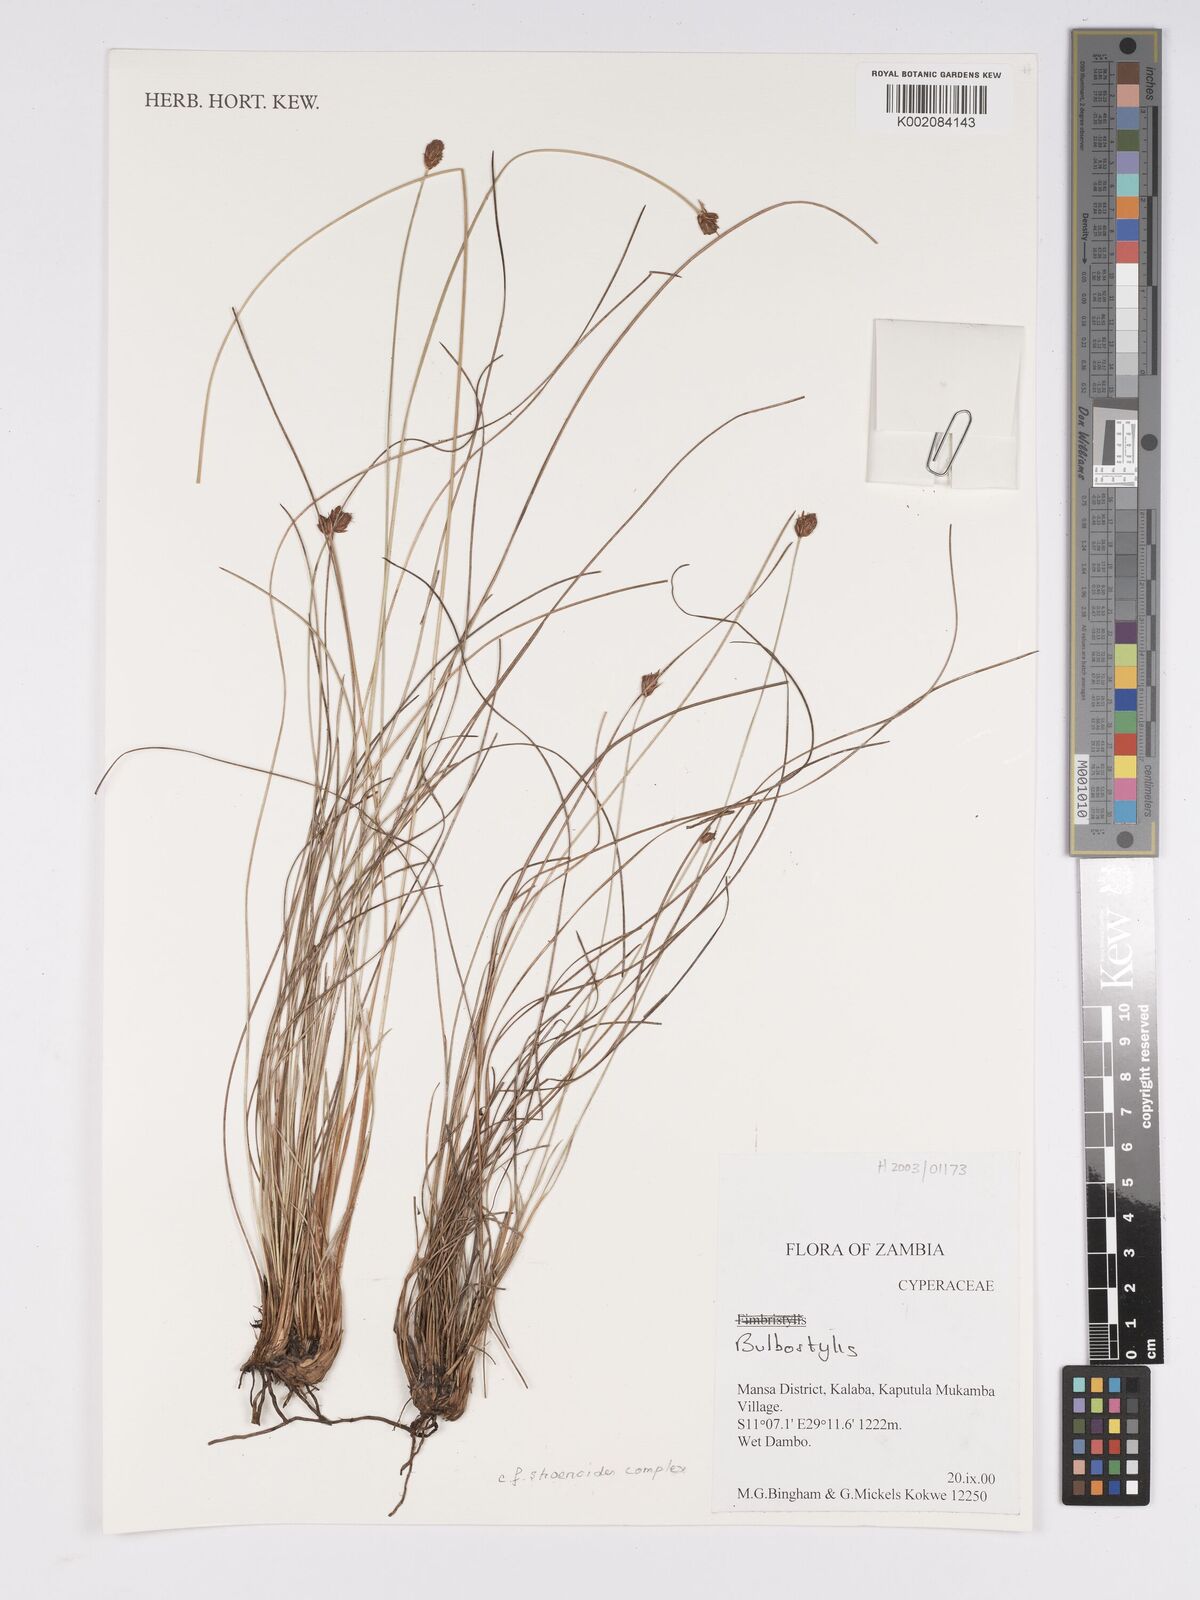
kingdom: Plantae
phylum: Tracheophyta
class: Liliopsida
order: Poales
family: Cyperaceae
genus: Bulbostylis
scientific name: Bulbostylis
